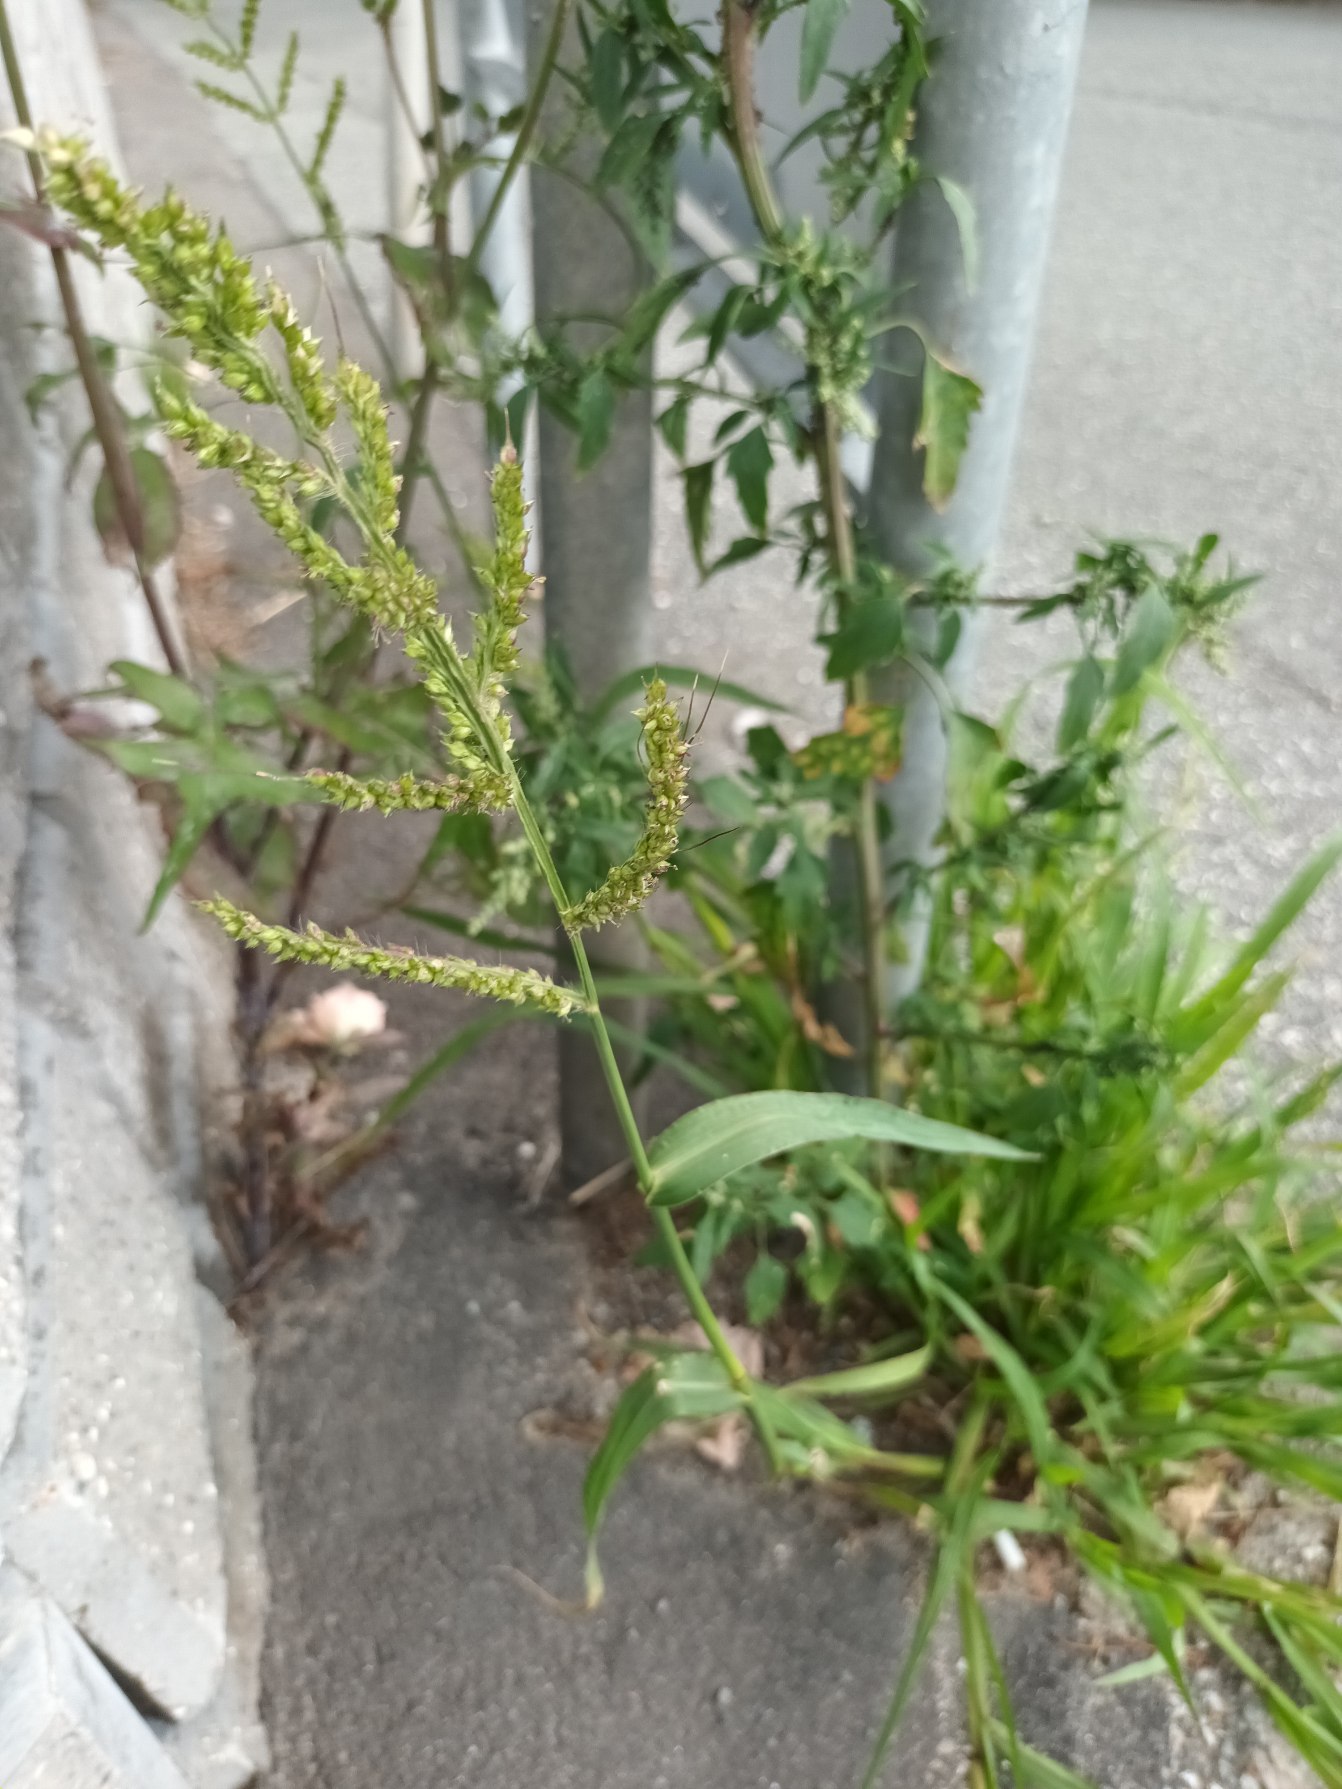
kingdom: Plantae
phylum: Tracheophyta
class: Liliopsida
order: Poales
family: Poaceae
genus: Echinochloa
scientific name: Echinochloa crus-galli
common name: Almindelig hanespore
